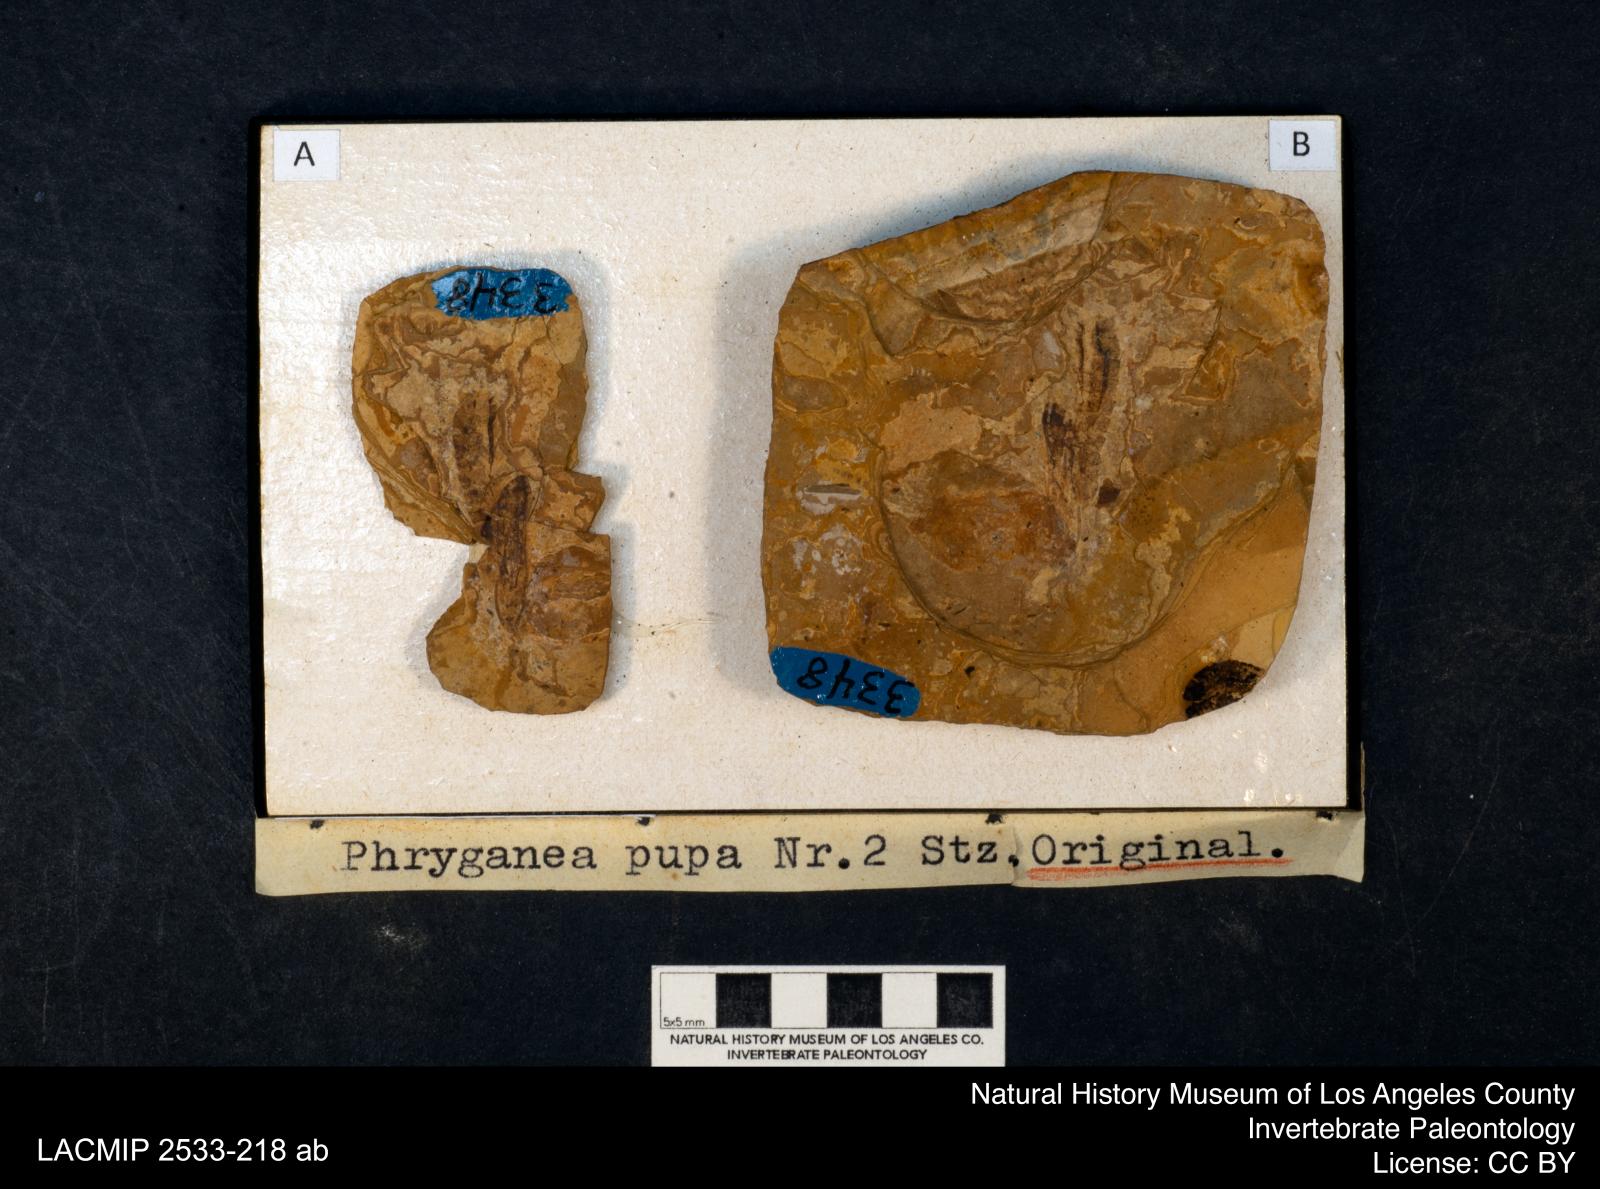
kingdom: Animalia
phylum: Arthropoda
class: Insecta
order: Trichoptera
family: Phryganeidae
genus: Phryganea
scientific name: Phryganea
